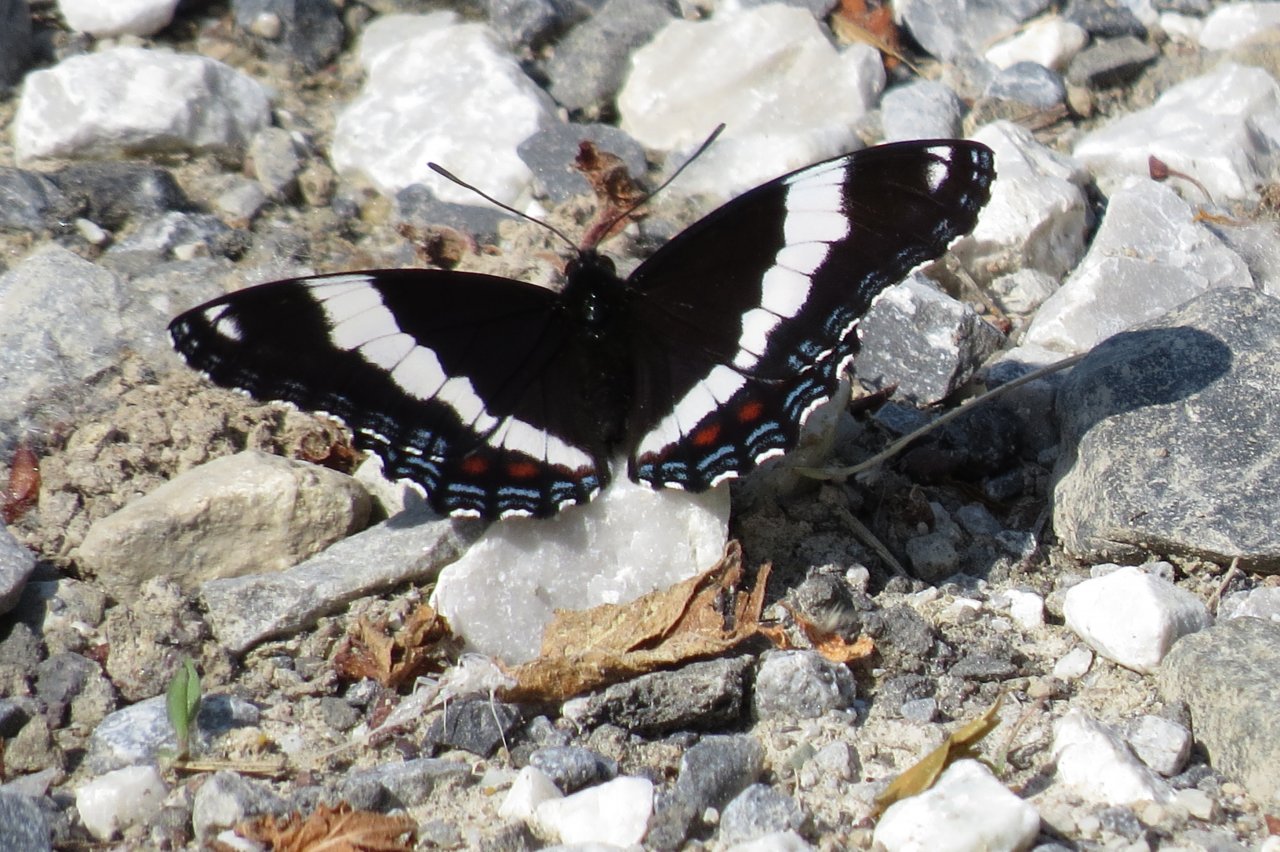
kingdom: Animalia
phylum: Arthropoda
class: Insecta
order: Lepidoptera
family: Nymphalidae
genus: Limenitis
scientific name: Limenitis arthemis
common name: Red-spotted Admiral
